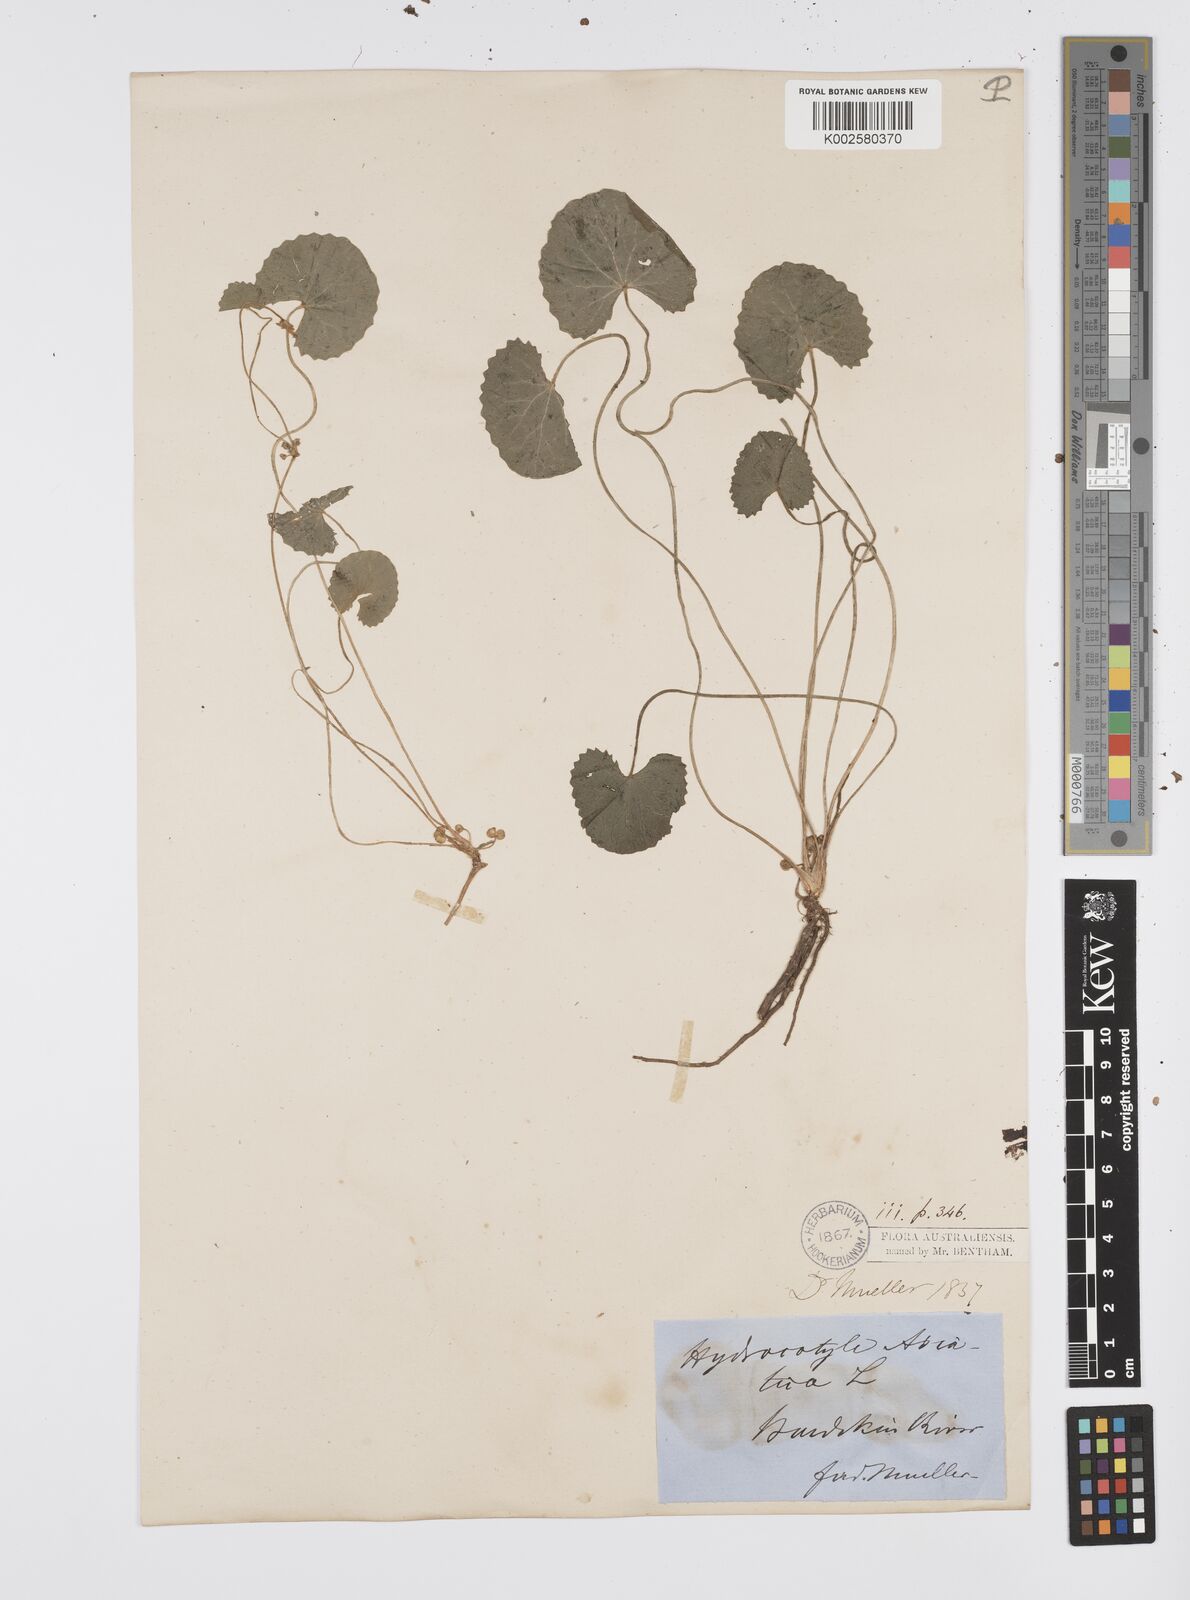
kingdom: Plantae
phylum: Tracheophyta
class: Magnoliopsida
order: Apiales
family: Apiaceae
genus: Centella
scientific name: Centella asiatica
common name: Spadeleaf
